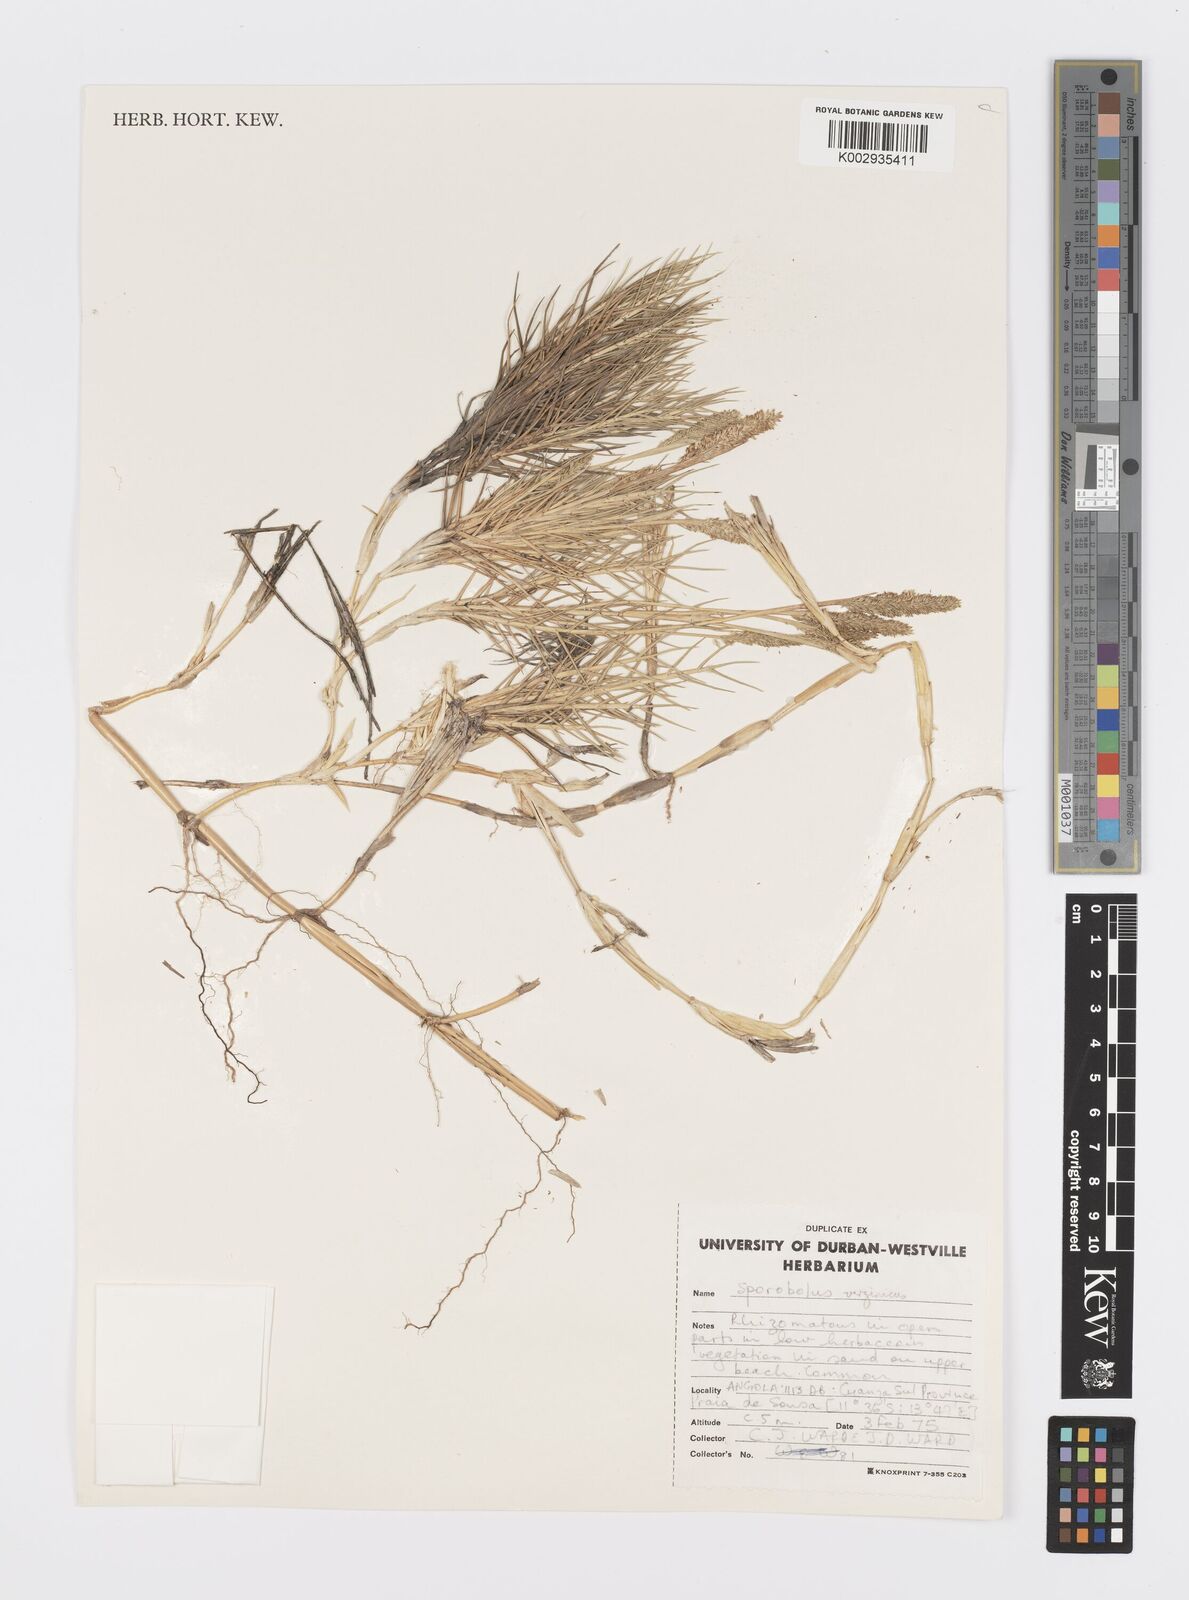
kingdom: Plantae
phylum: Tracheophyta
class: Liliopsida
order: Poales
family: Poaceae
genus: Sporobolus
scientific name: Sporobolus virginicus
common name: Beach dropseed
